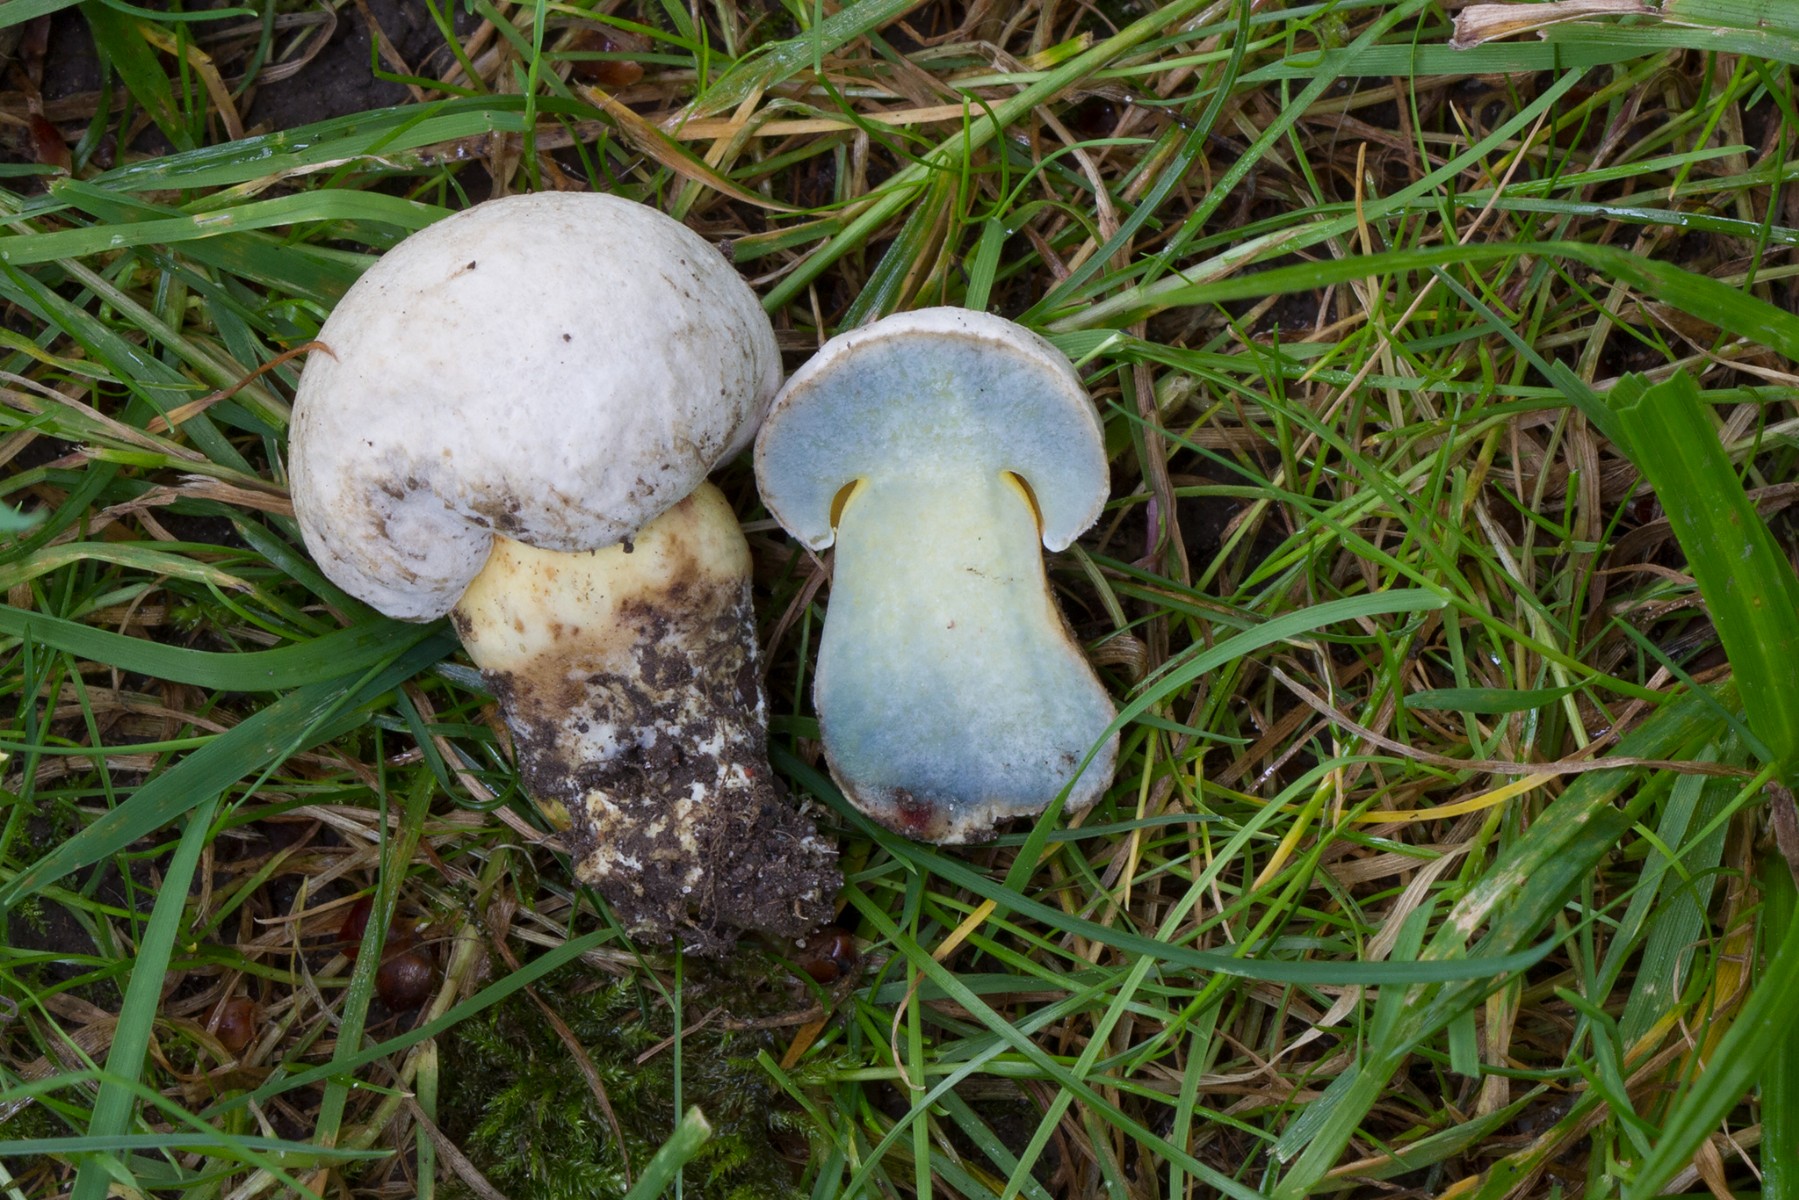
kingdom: Fungi
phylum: Basidiomycota
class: Agaricomycetes
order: Boletales
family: Boletaceae
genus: Caloboletus
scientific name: Caloboletus radicans
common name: rod-rørhat
